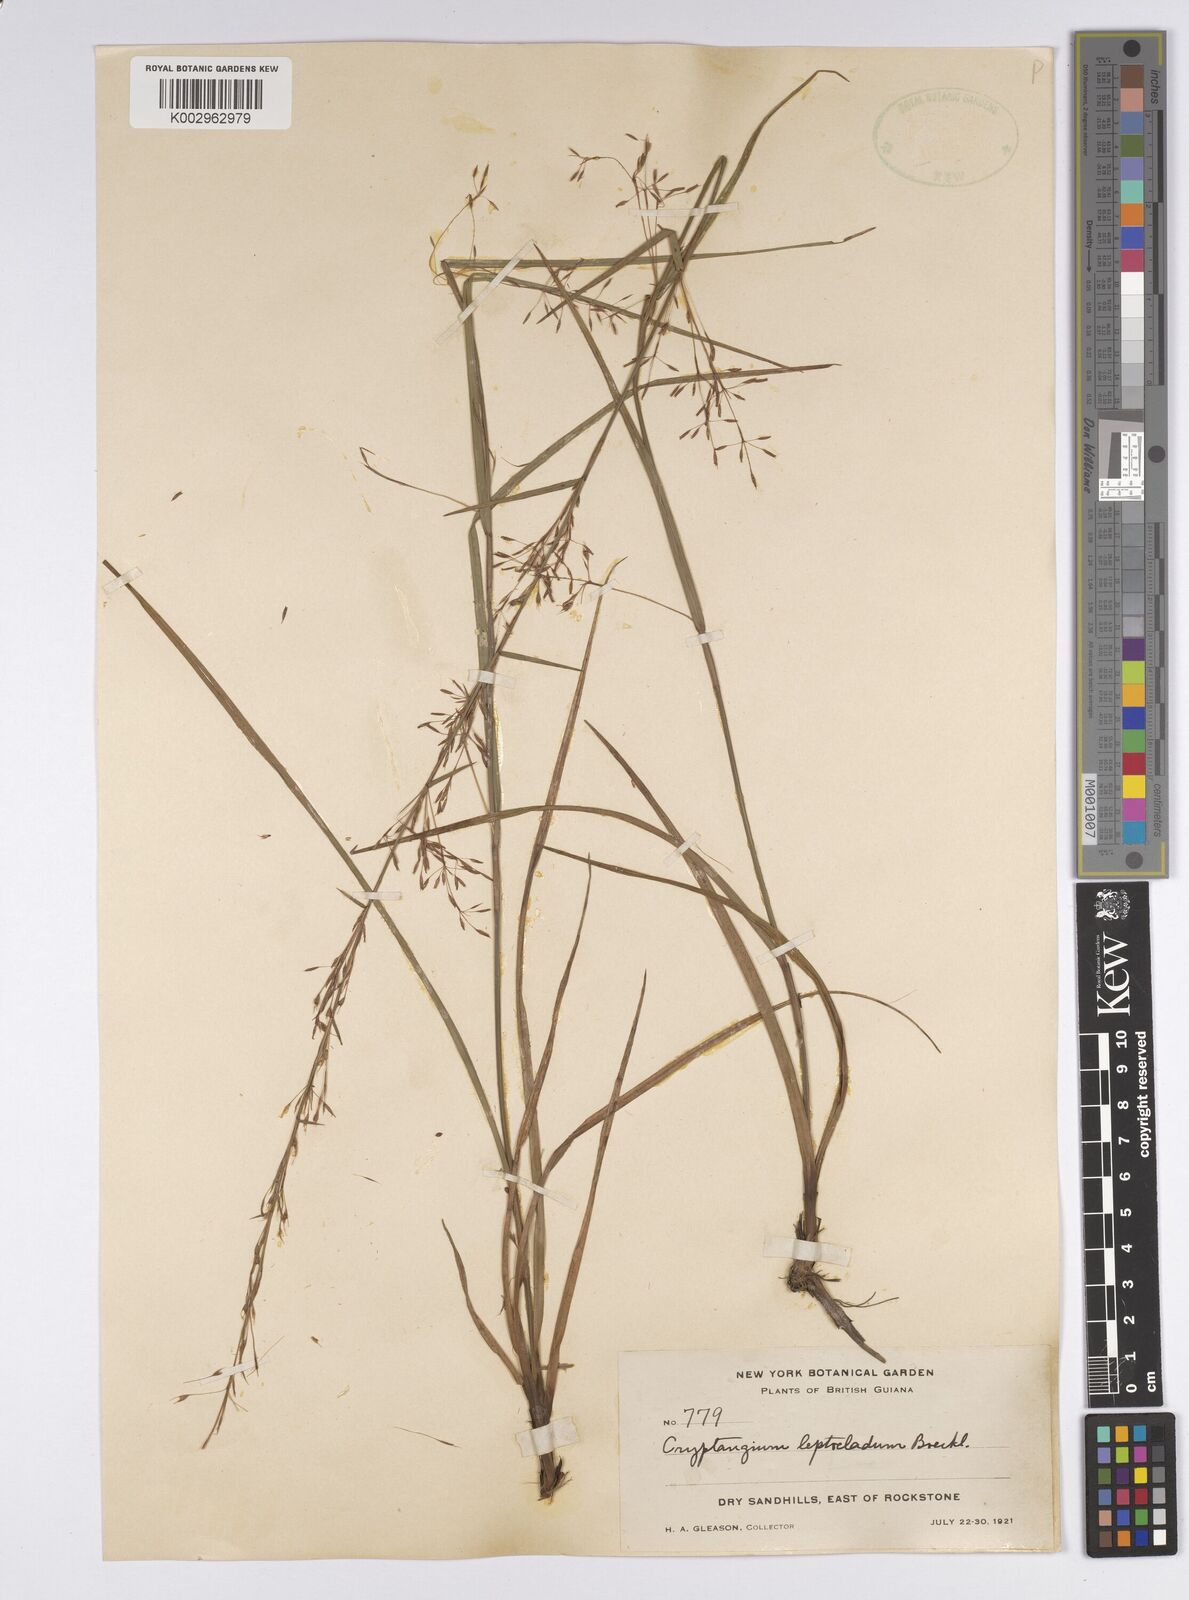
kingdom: Plantae
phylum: Tracheophyta
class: Liliopsida
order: Poales
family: Cyperaceae
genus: Cryptangium
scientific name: Cryptangium verticillatum
